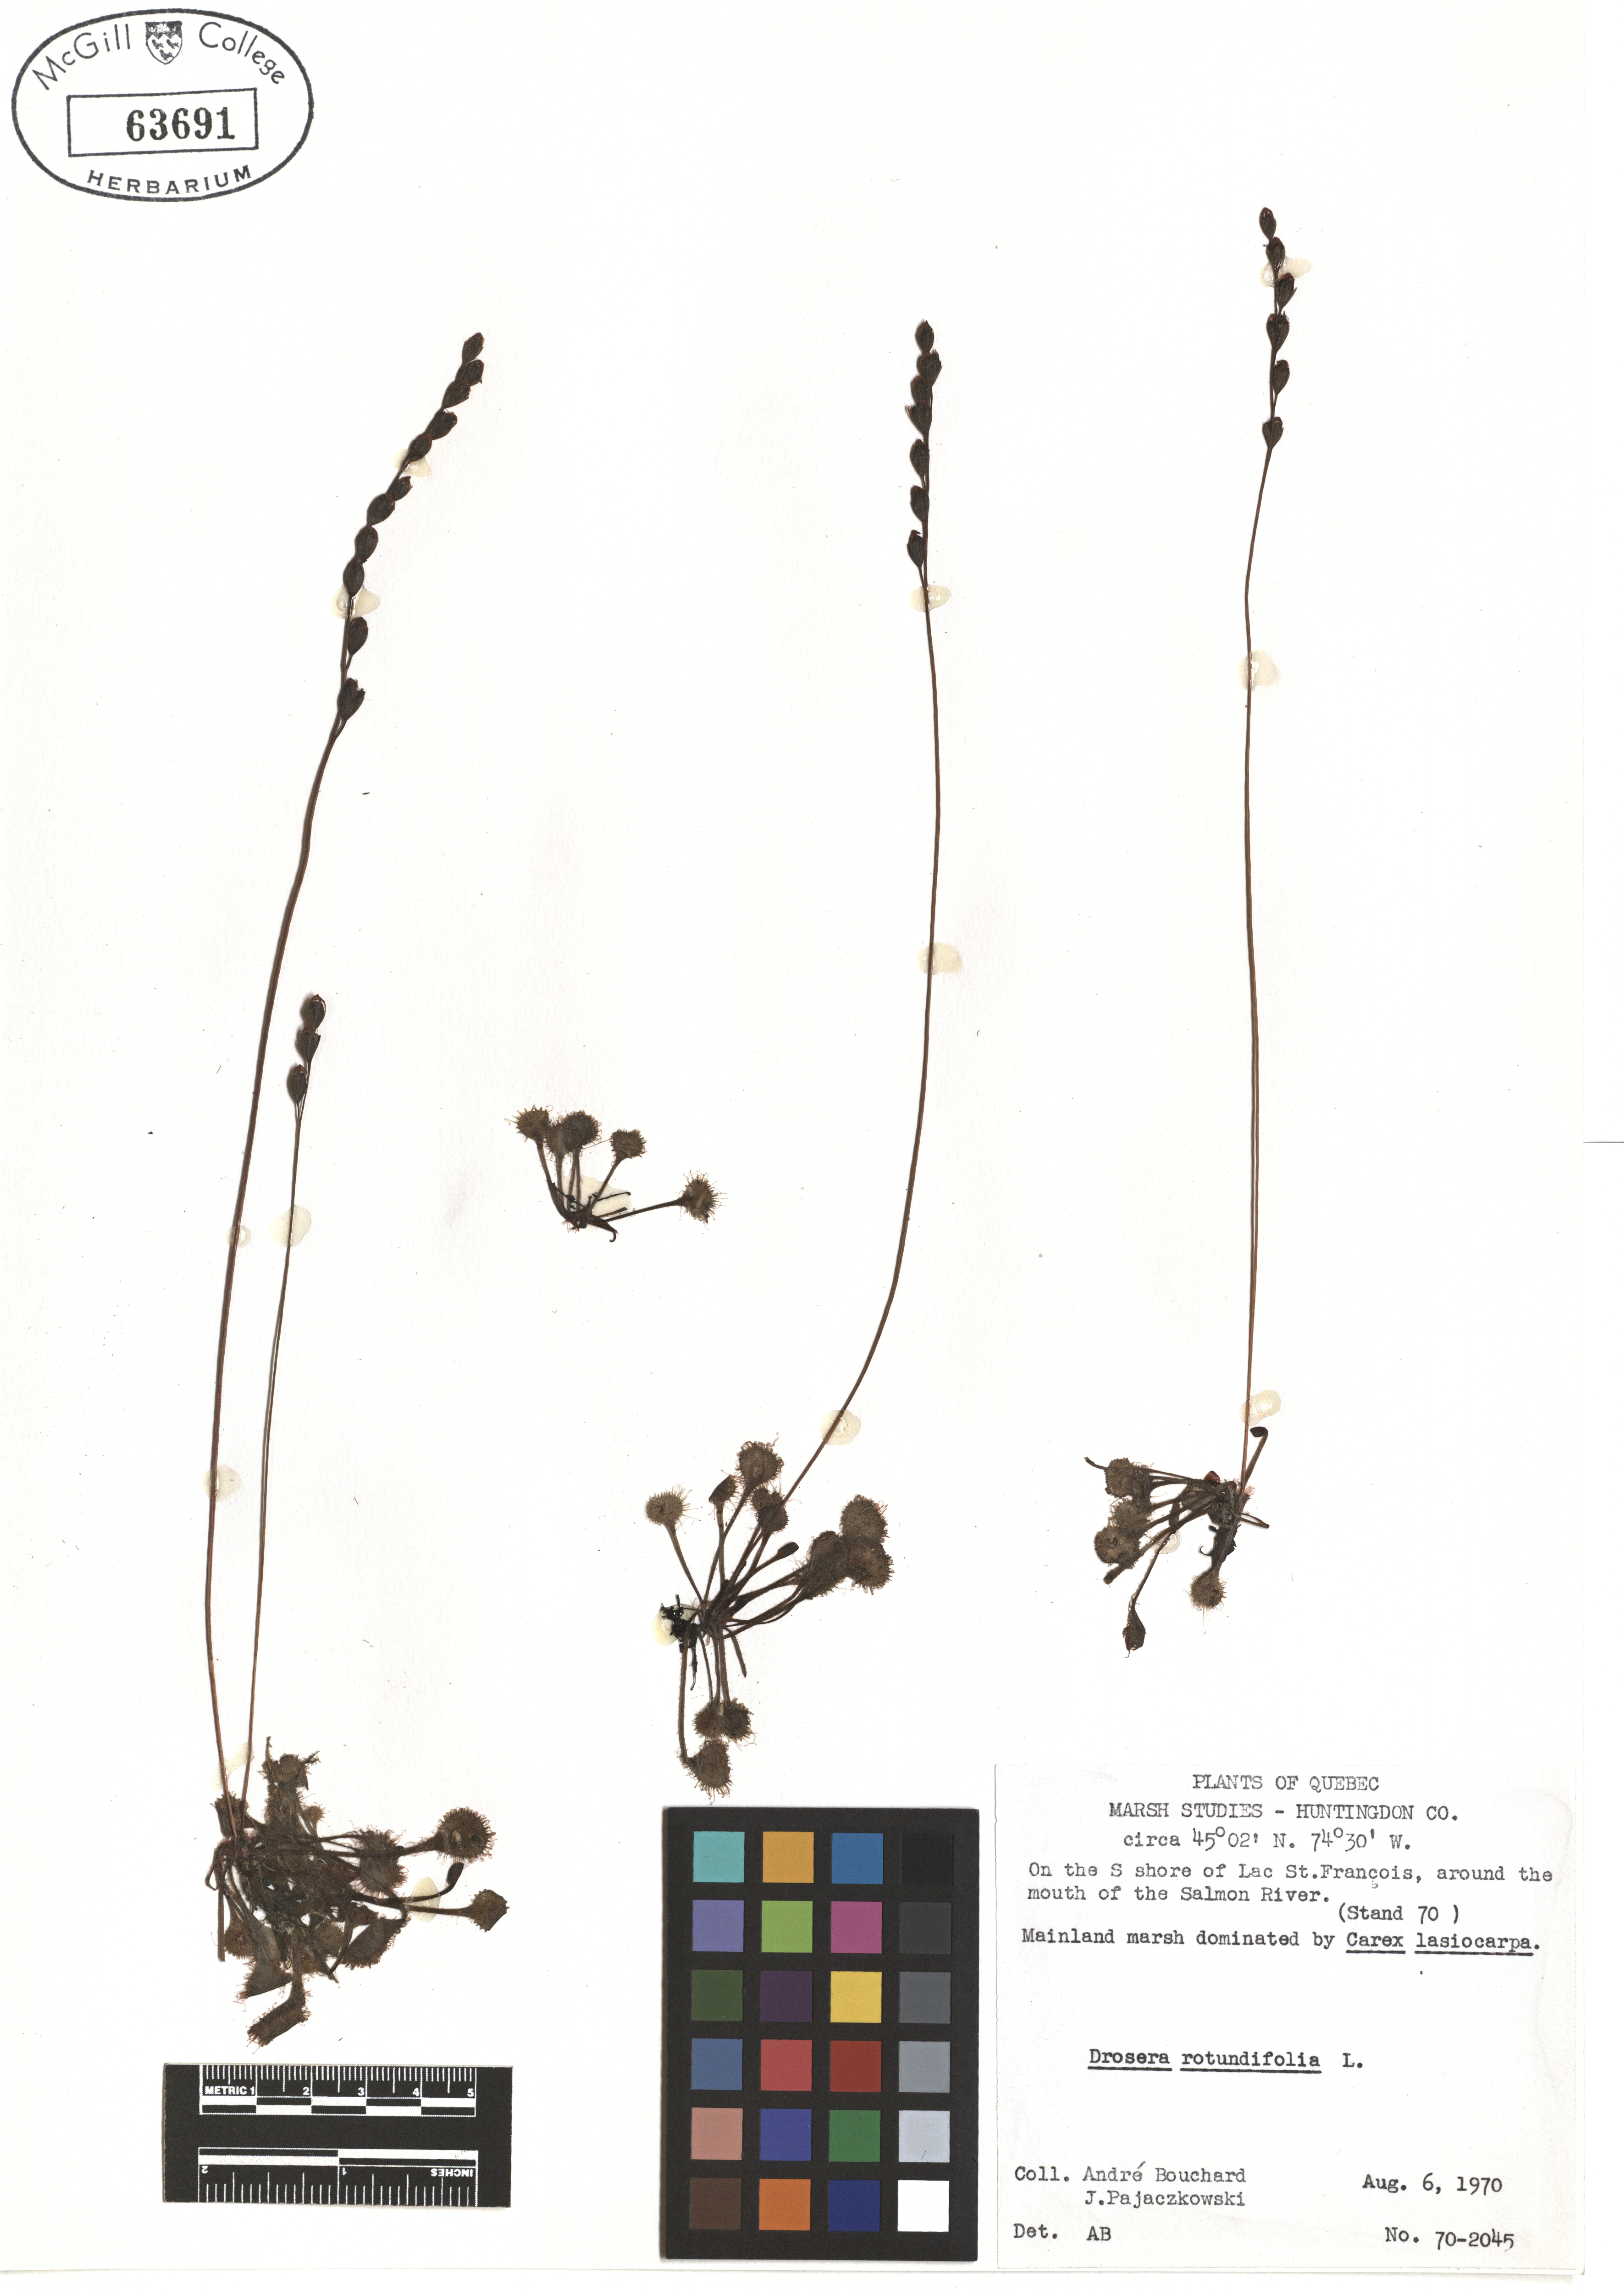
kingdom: Plantae
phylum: Tracheophyta
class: Magnoliopsida
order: Caryophyllales
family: Droseraceae
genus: Drosera
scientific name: Drosera rotundifolia
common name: Round-leaved sundew
